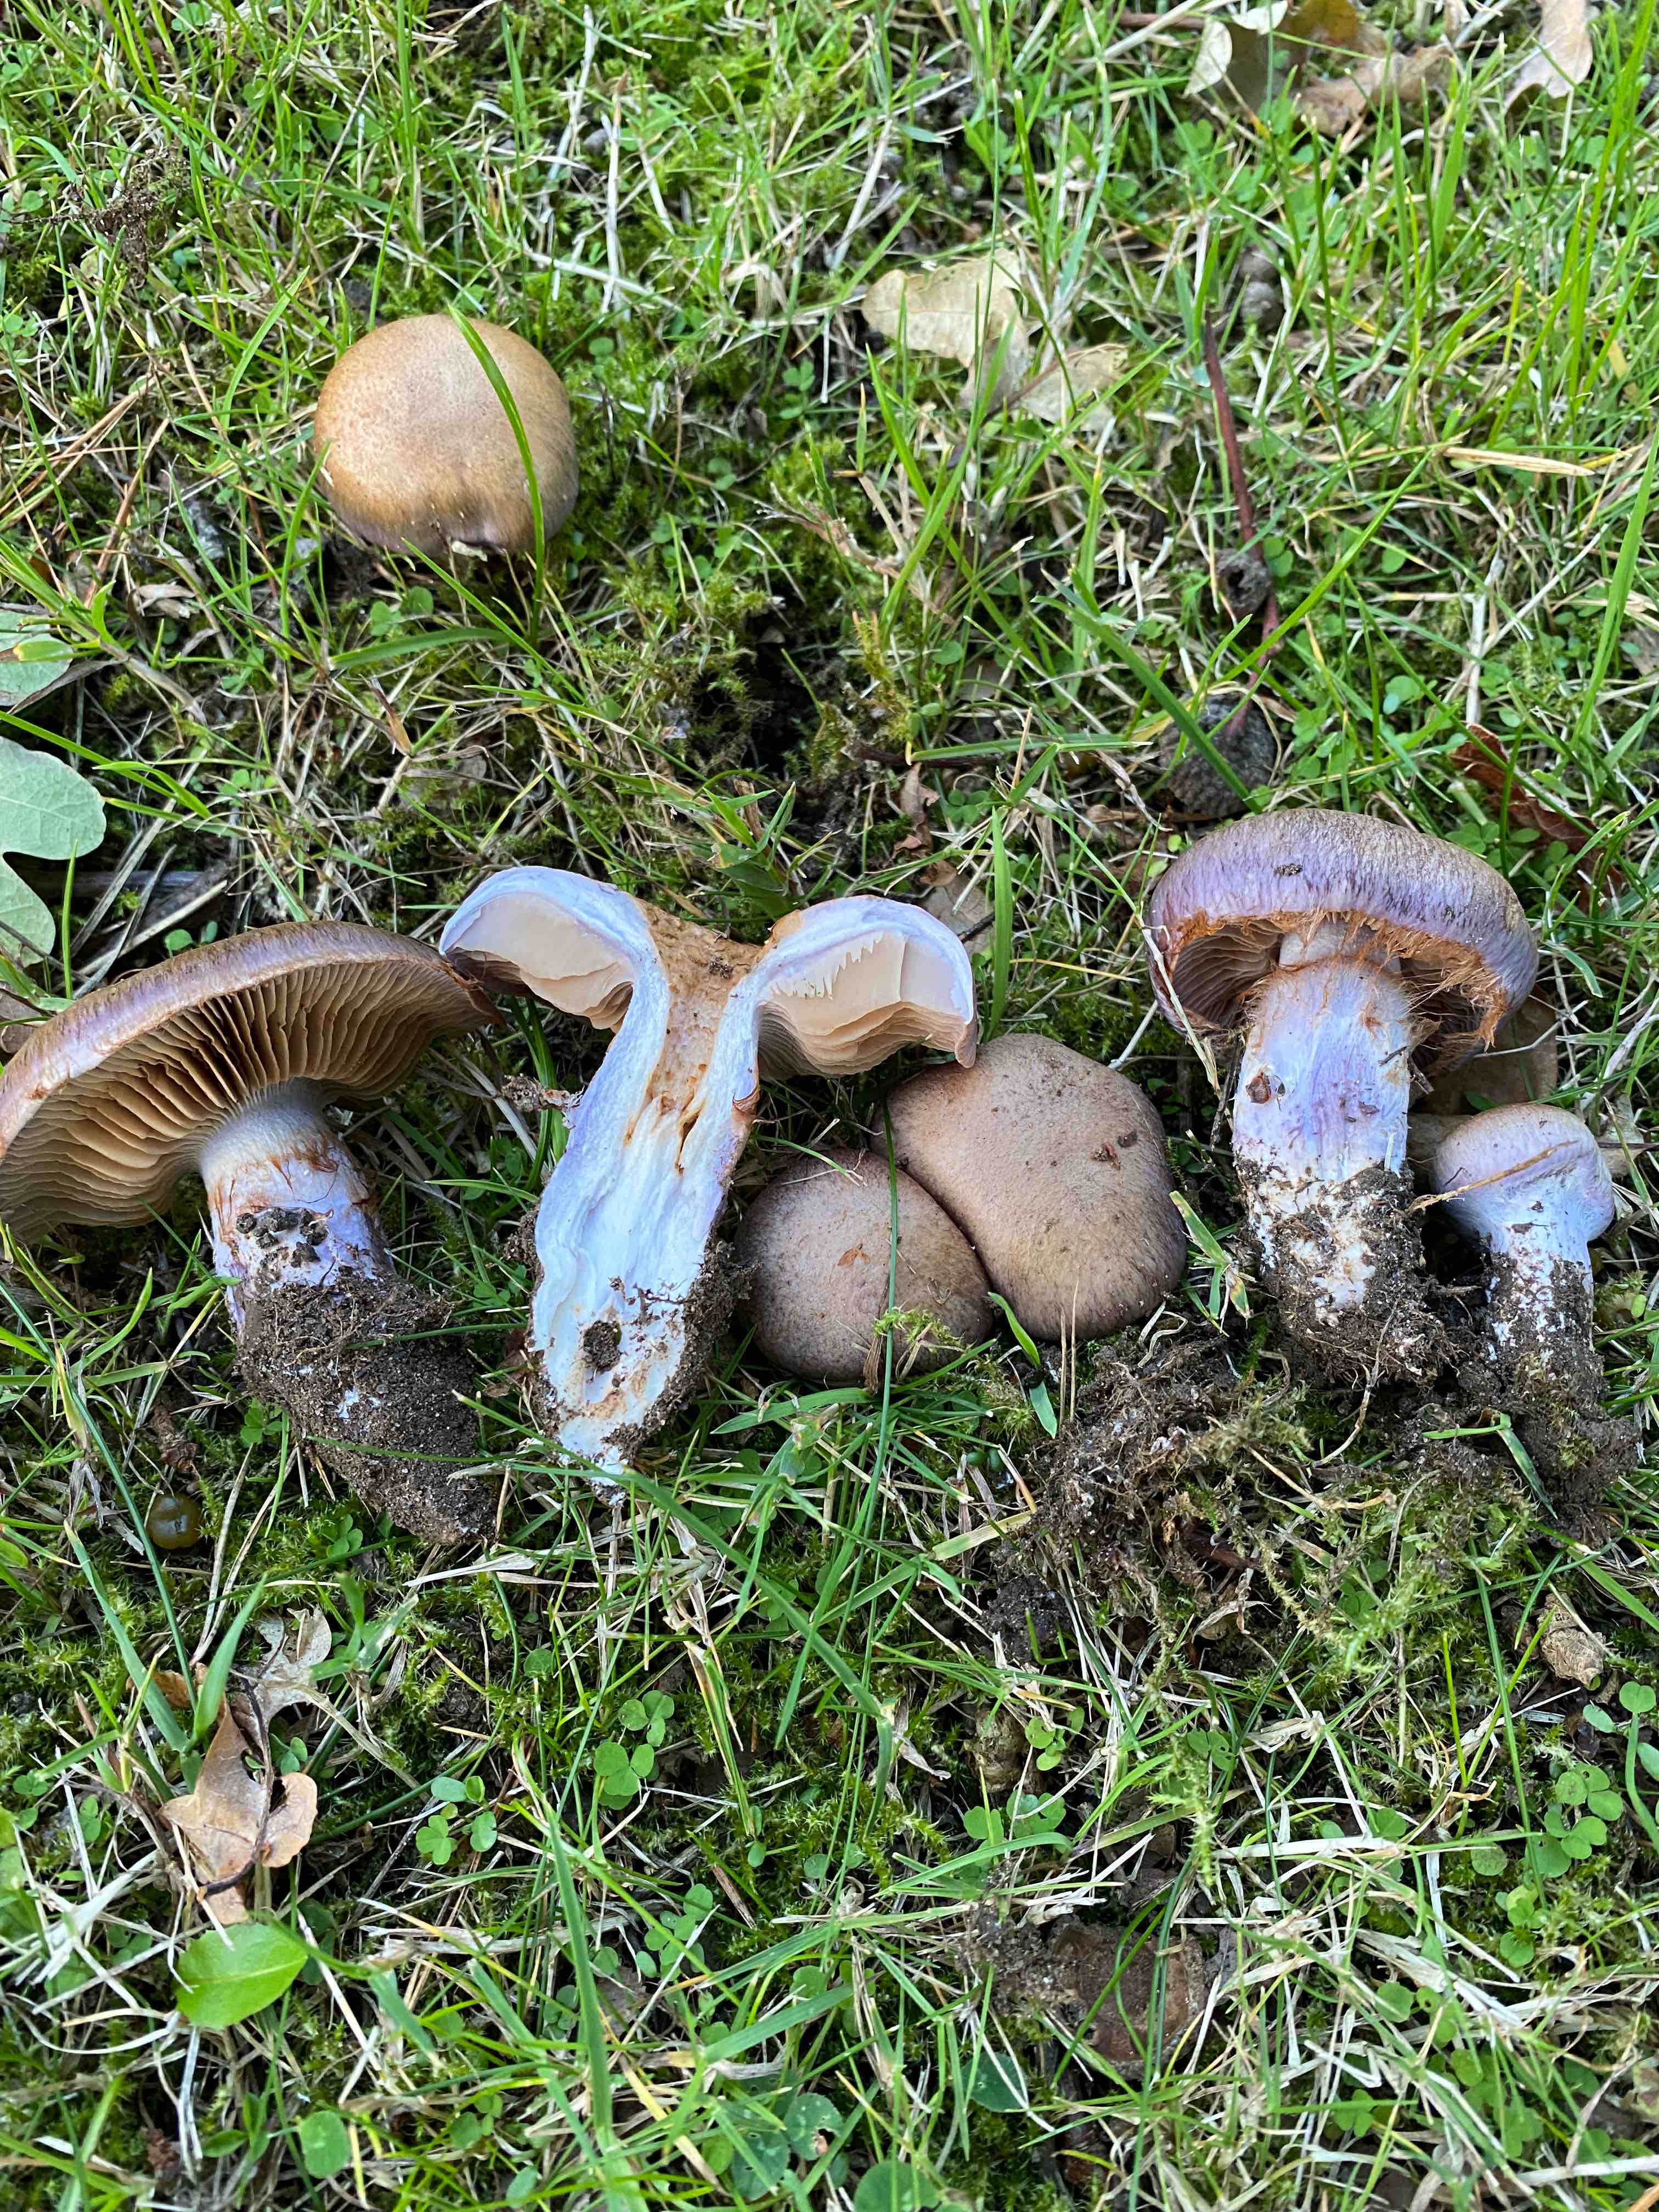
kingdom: Fungi
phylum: Basidiomycota
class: Agaricomycetes
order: Agaricales
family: Cortinariaceae
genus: Cortinarius
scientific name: Cortinarius
